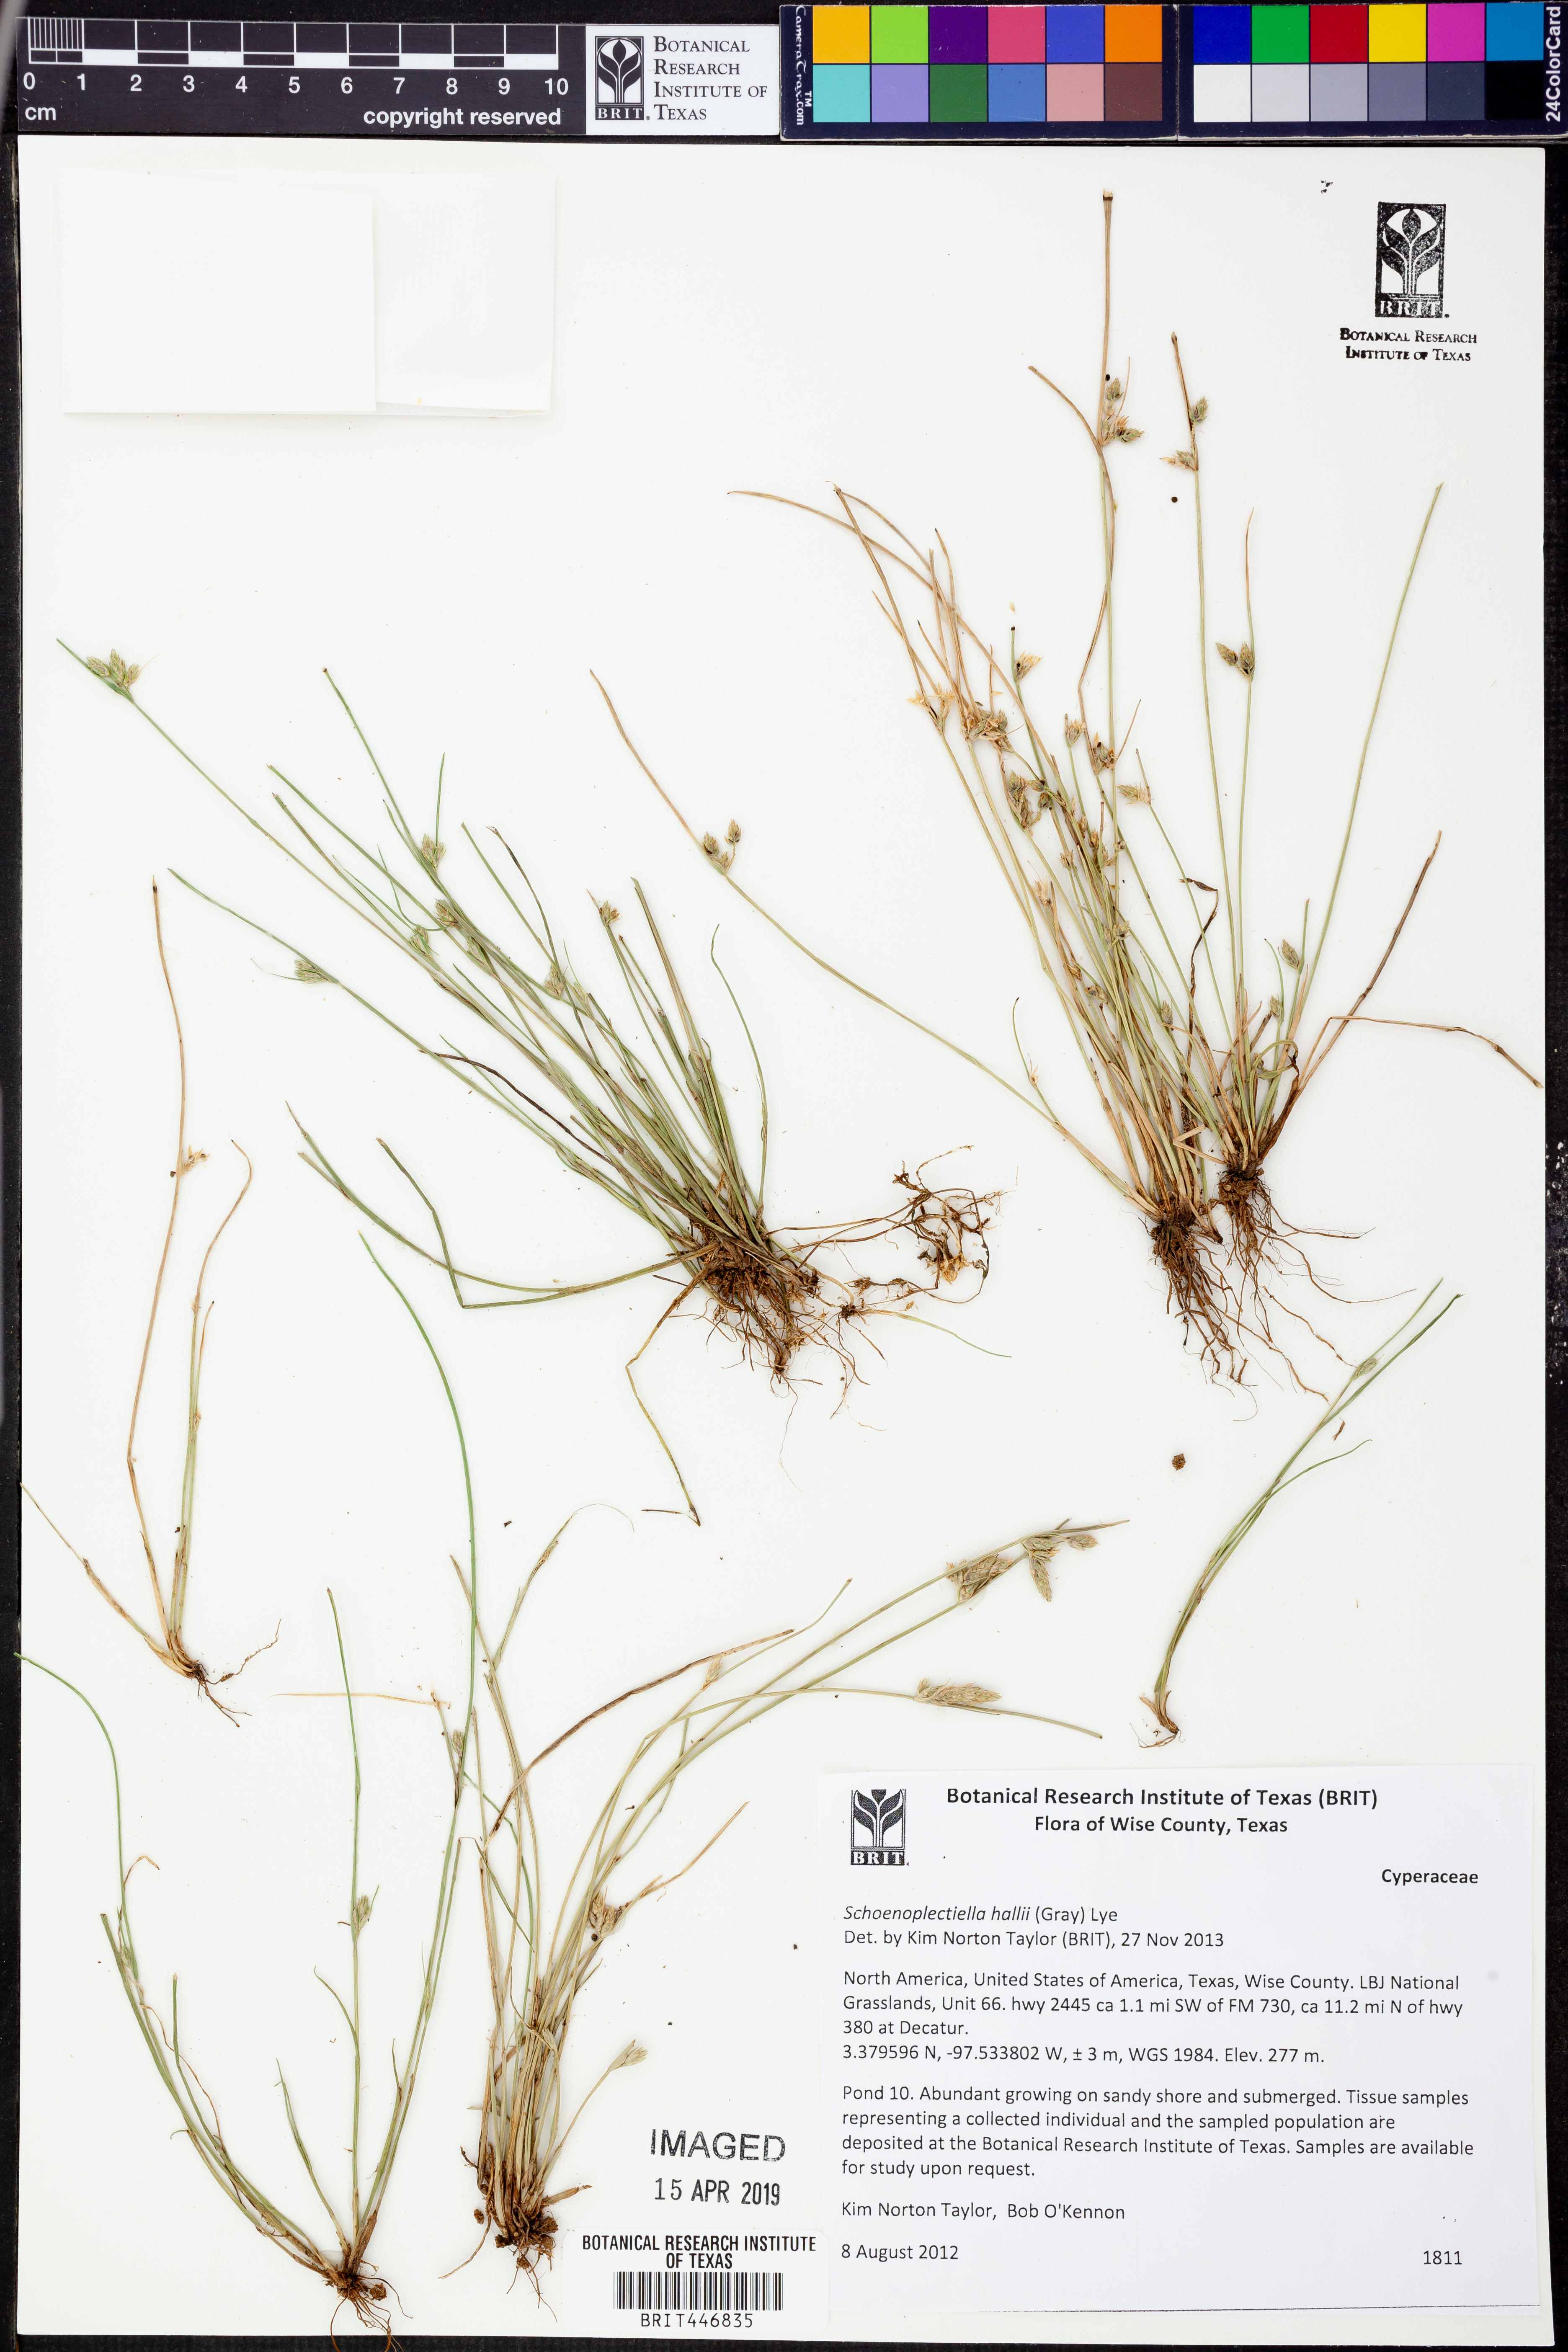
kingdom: Plantae
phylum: Tracheophyta
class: Liliopsida
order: Poales
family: Cyperaceae
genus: Schoenoplectiella
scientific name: Schoenoplectiella hallii
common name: Hall's bullrush
